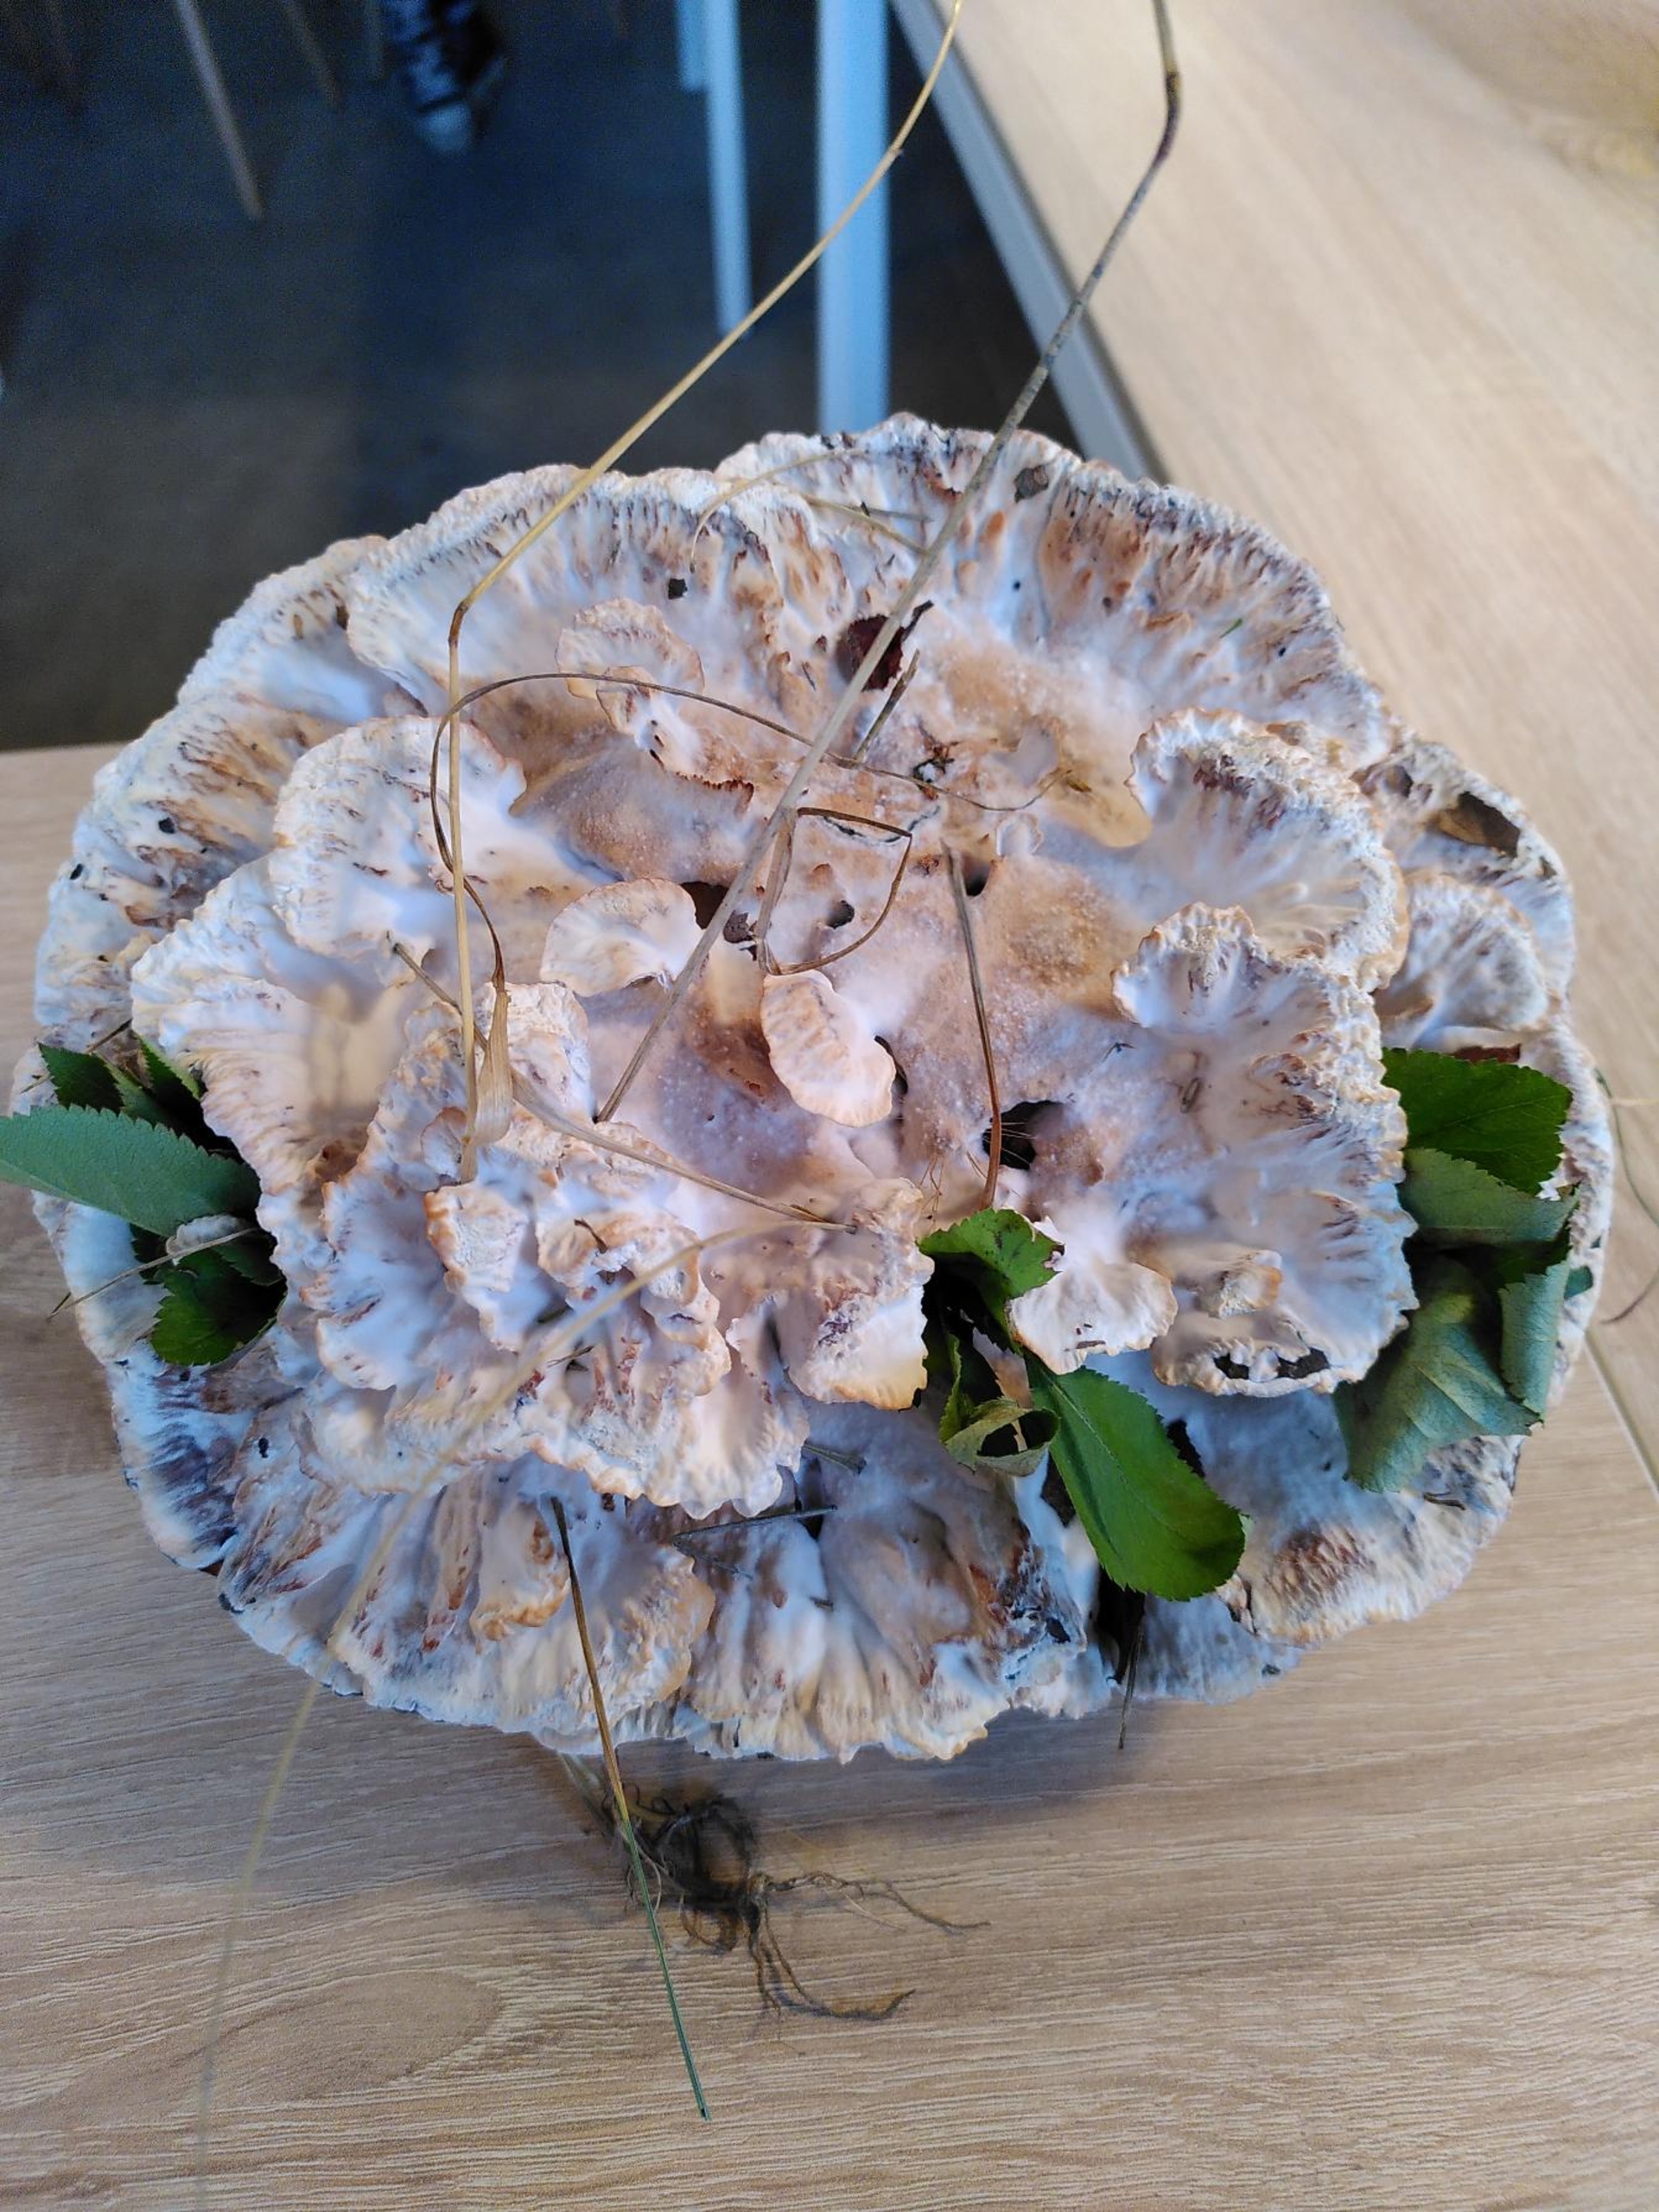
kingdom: Fungi
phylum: Basidiomycota
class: Agaricomycetes
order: Polyporales
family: Podoscyphaceae
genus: Abortiporus
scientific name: Abortiporus biennis
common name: Rødmende pjalteporesvamp
